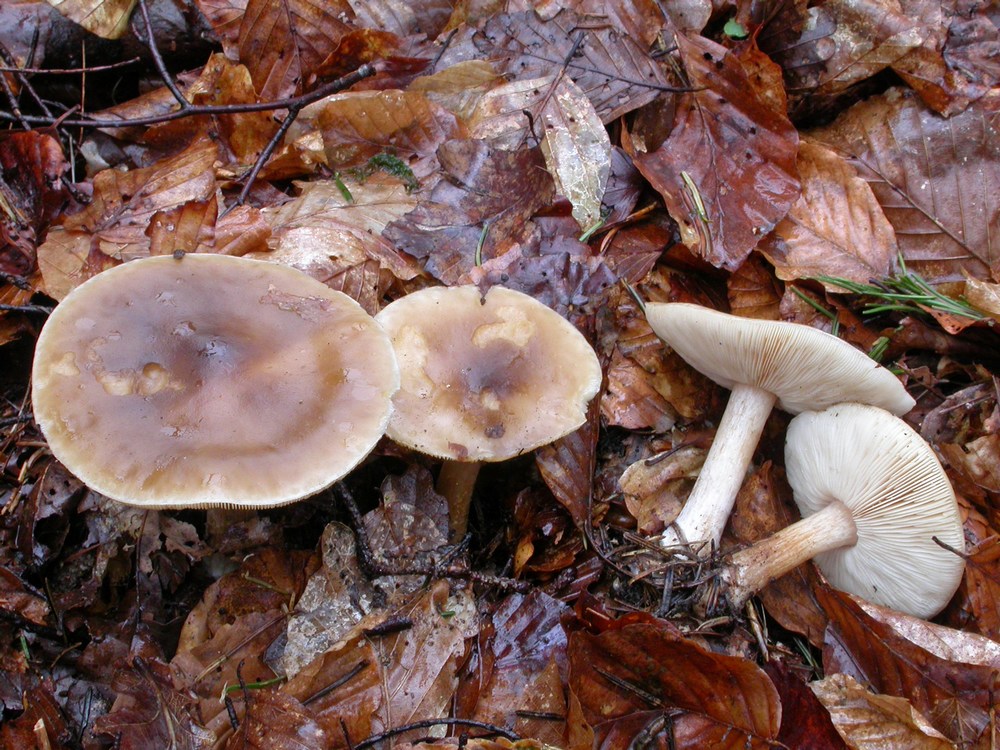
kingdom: Fungi
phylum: Basidiomycota
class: Agaricomycetes
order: Agaricales
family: Tricholomataceae
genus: Melanoleuca
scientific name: Melanoleuca cognata
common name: gyldengrå munkehat
